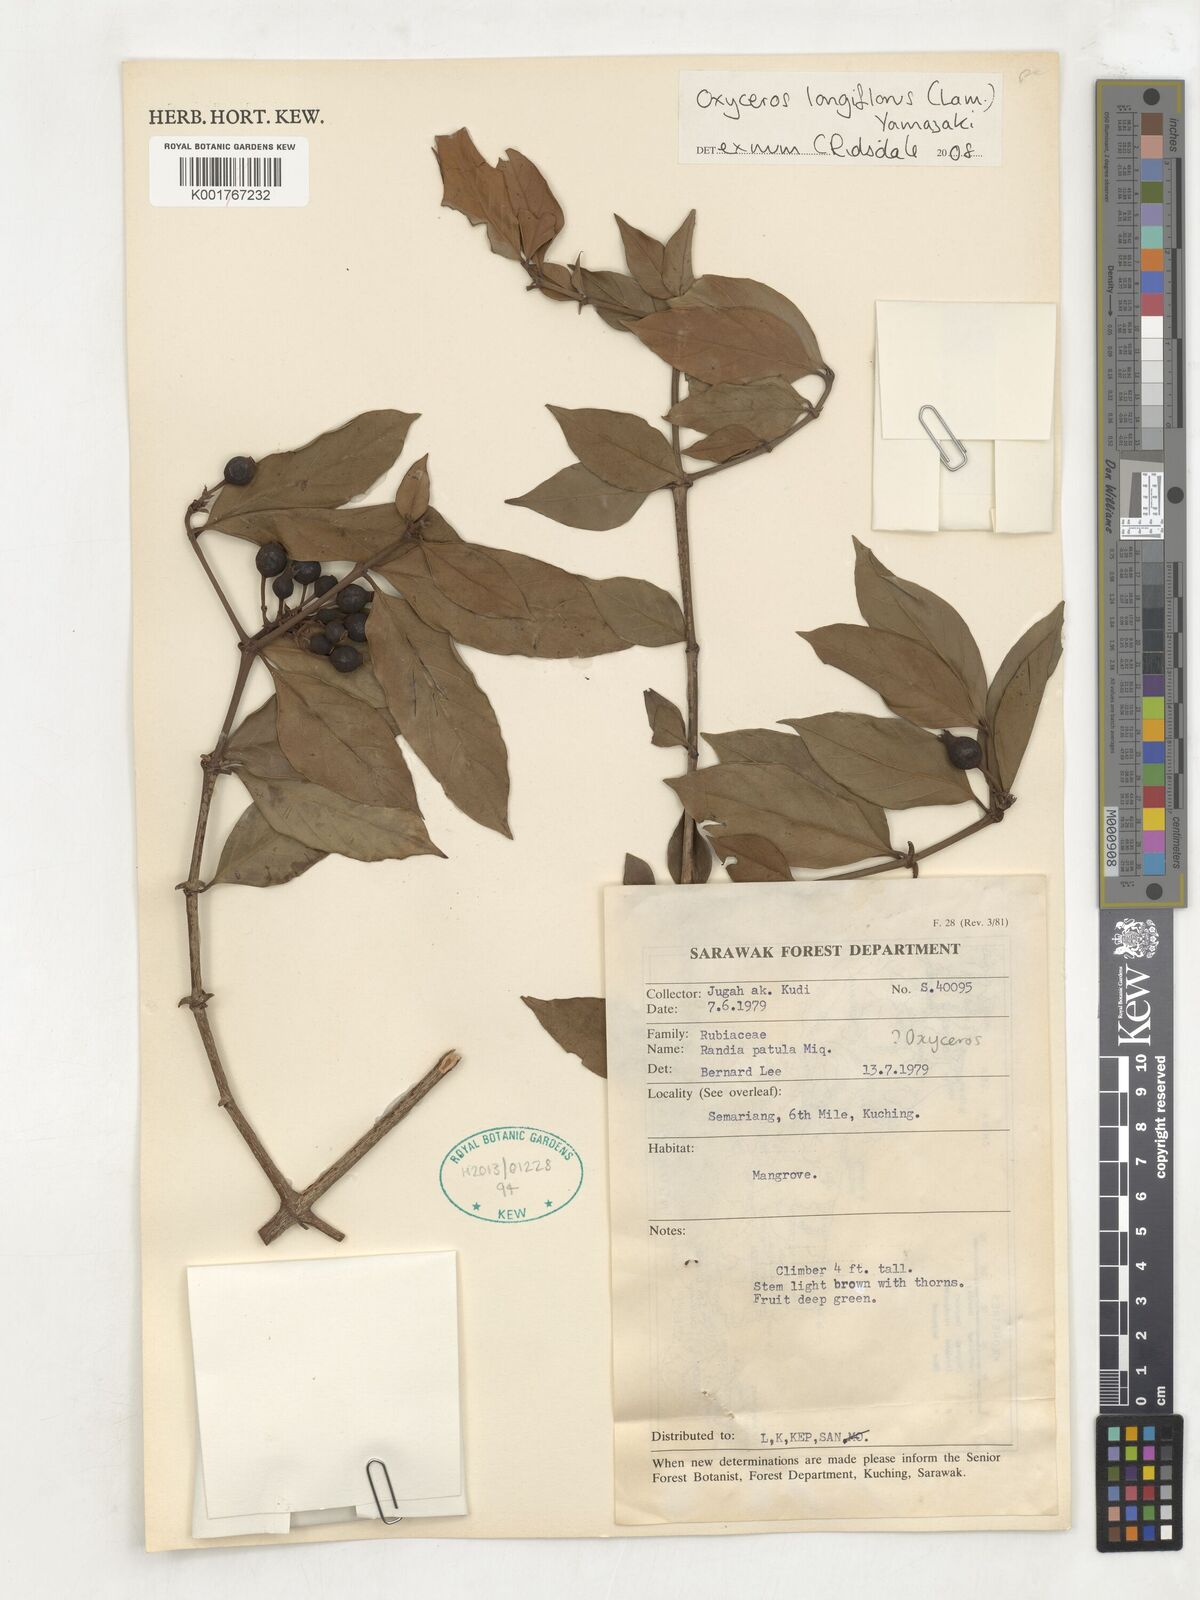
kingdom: Plantae
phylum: Tracheophyta
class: Magnoliopsida
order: Gentianales
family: Rubiaceae
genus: Oxyceros
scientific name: Oxyceros longiflorus
